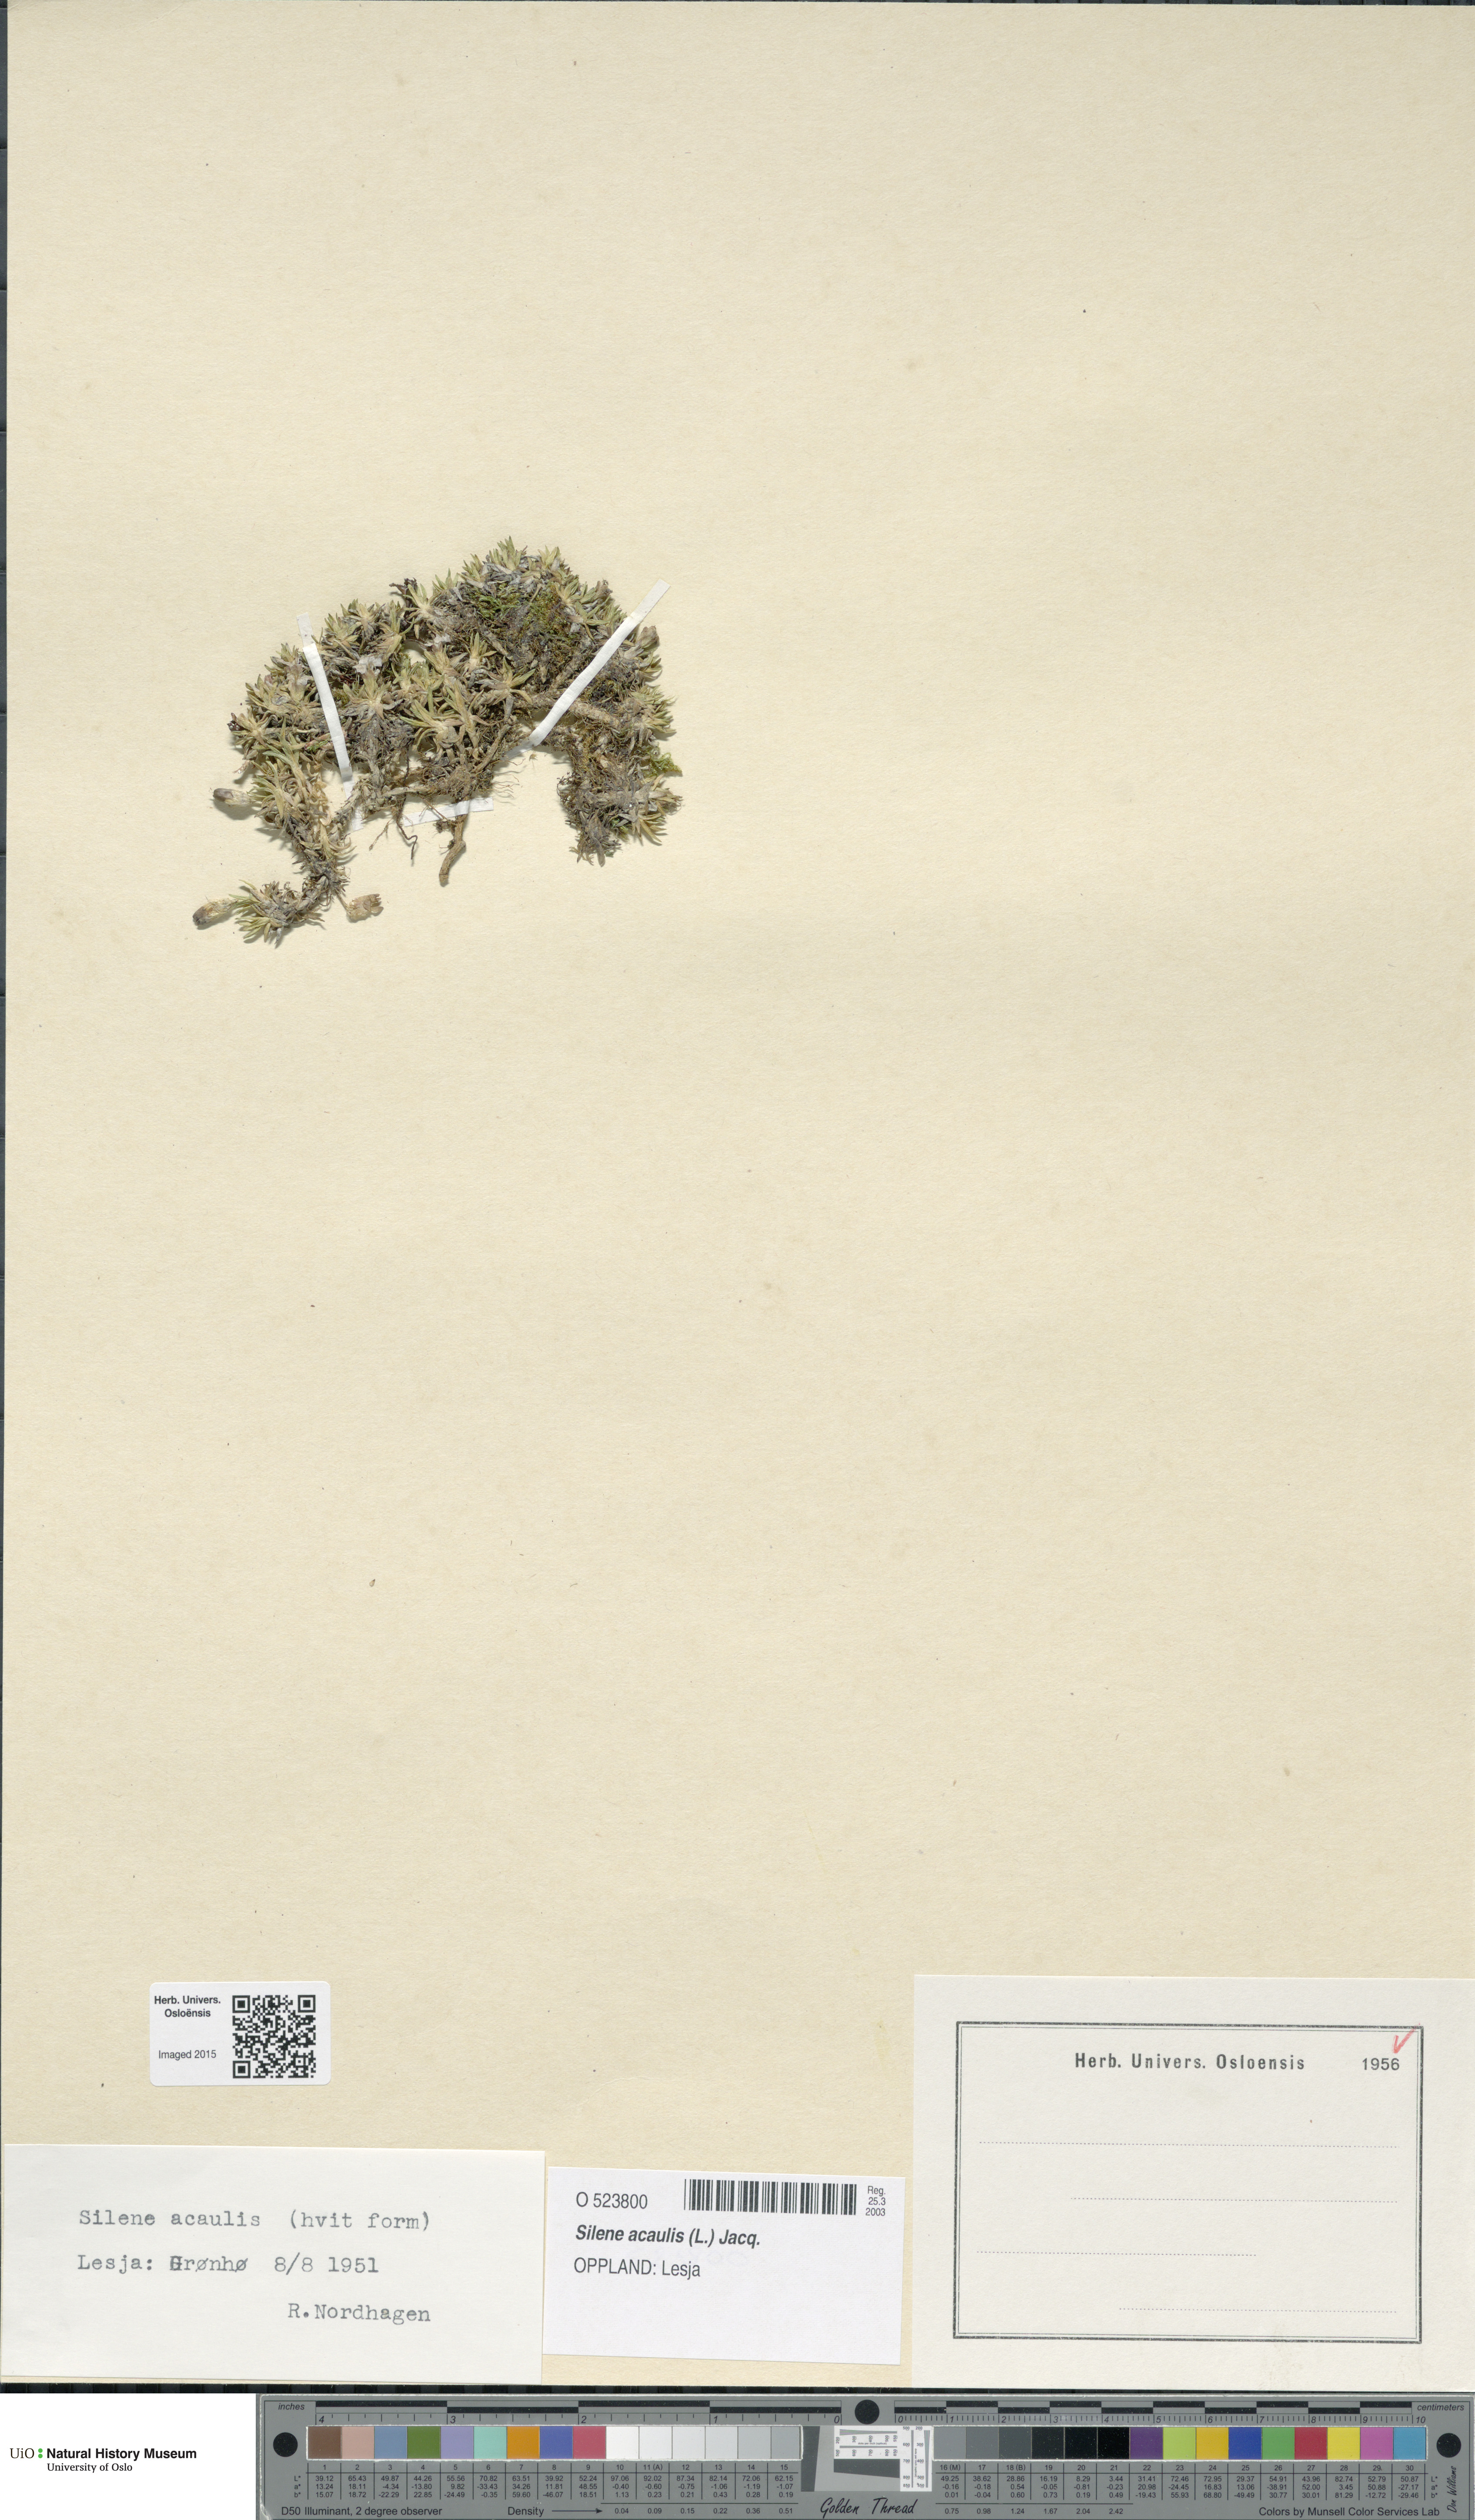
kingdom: Plantae
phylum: Tracheophyta
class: Magnoliopsida
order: Caryophyllales
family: Caryophyllaceae
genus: Silene
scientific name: Silene acaulis
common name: Moss campion
